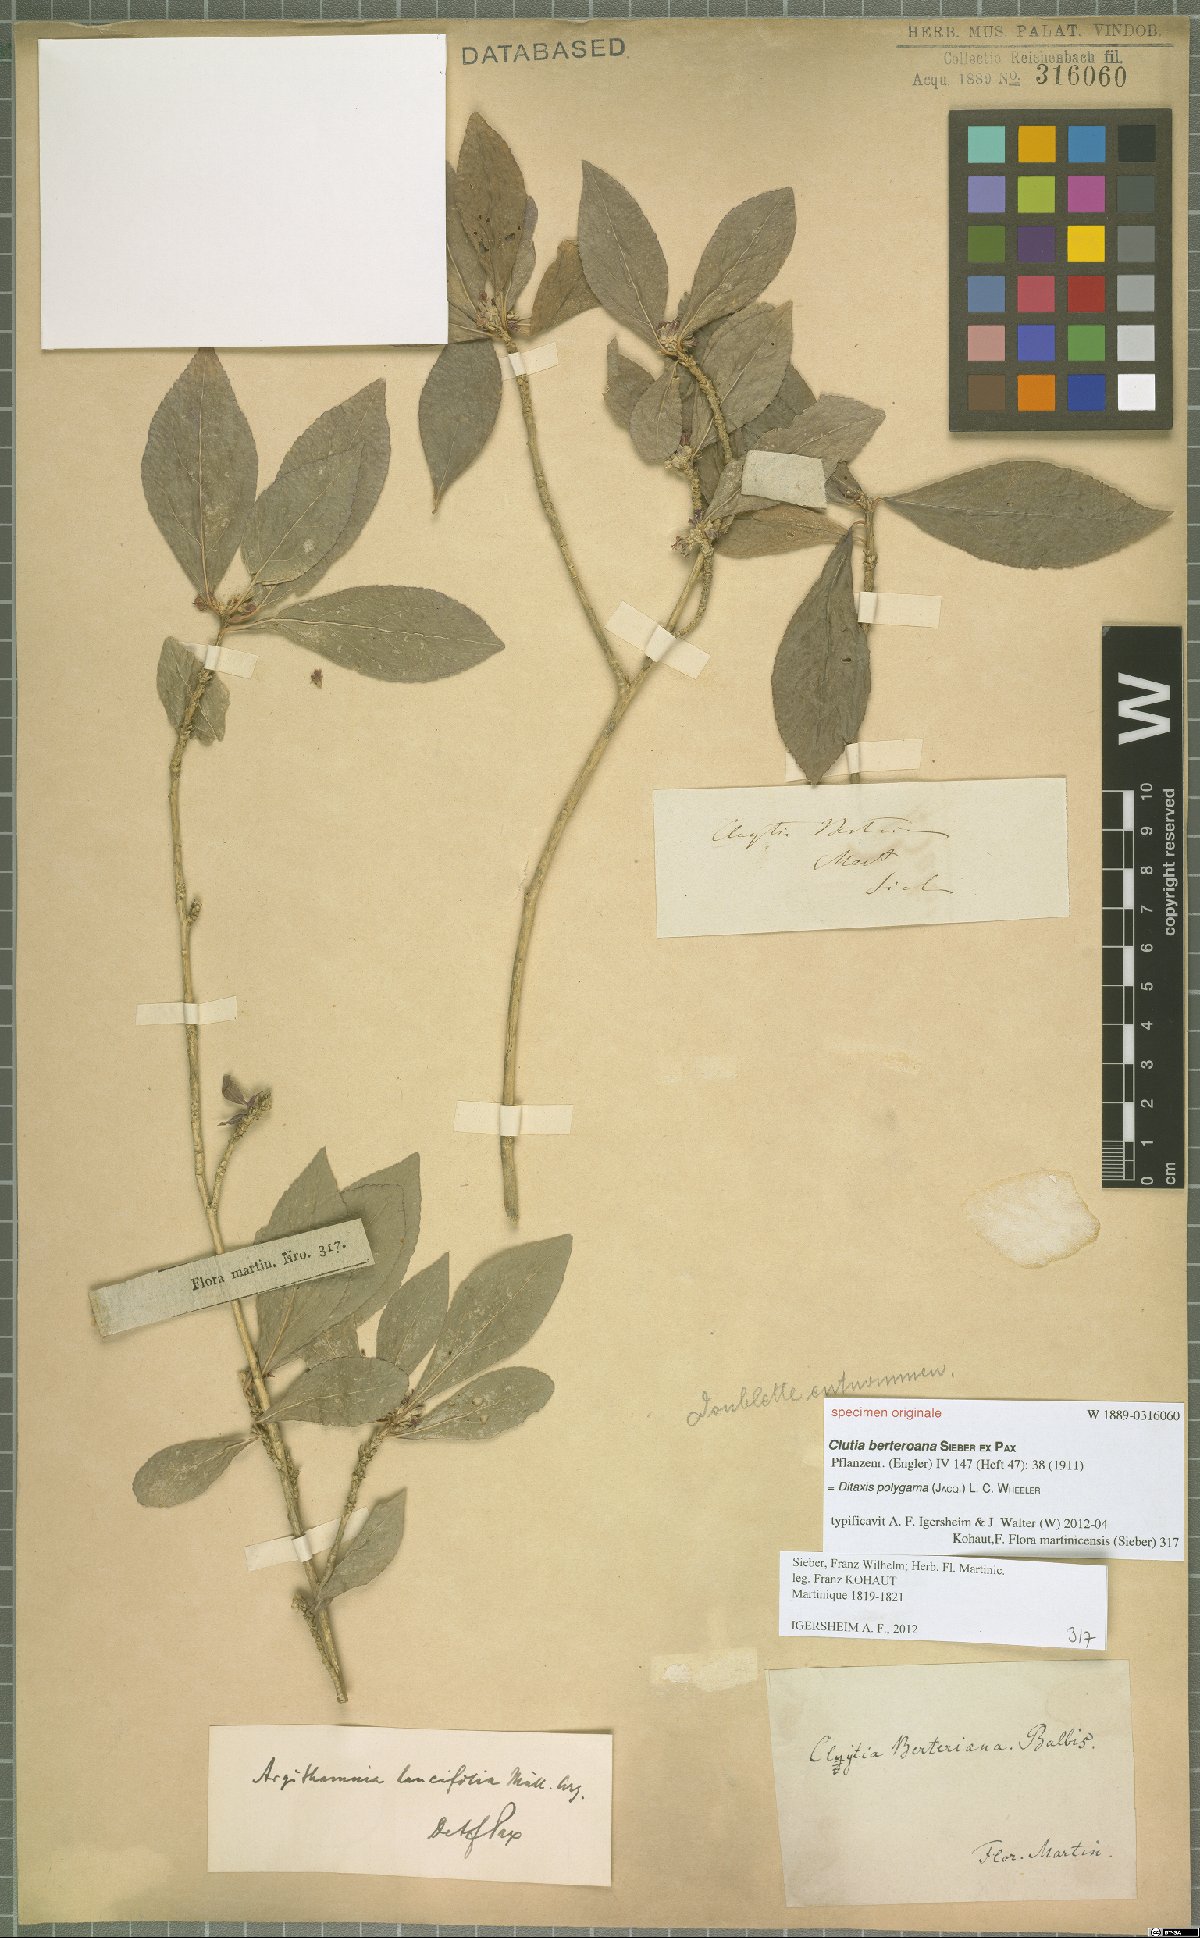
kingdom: Plantae
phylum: Tracheophyta
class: Magnoliopsida
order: Malpighiales
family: Euphorbiaceae
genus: Ditaxis
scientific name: Ditaxis polygama
